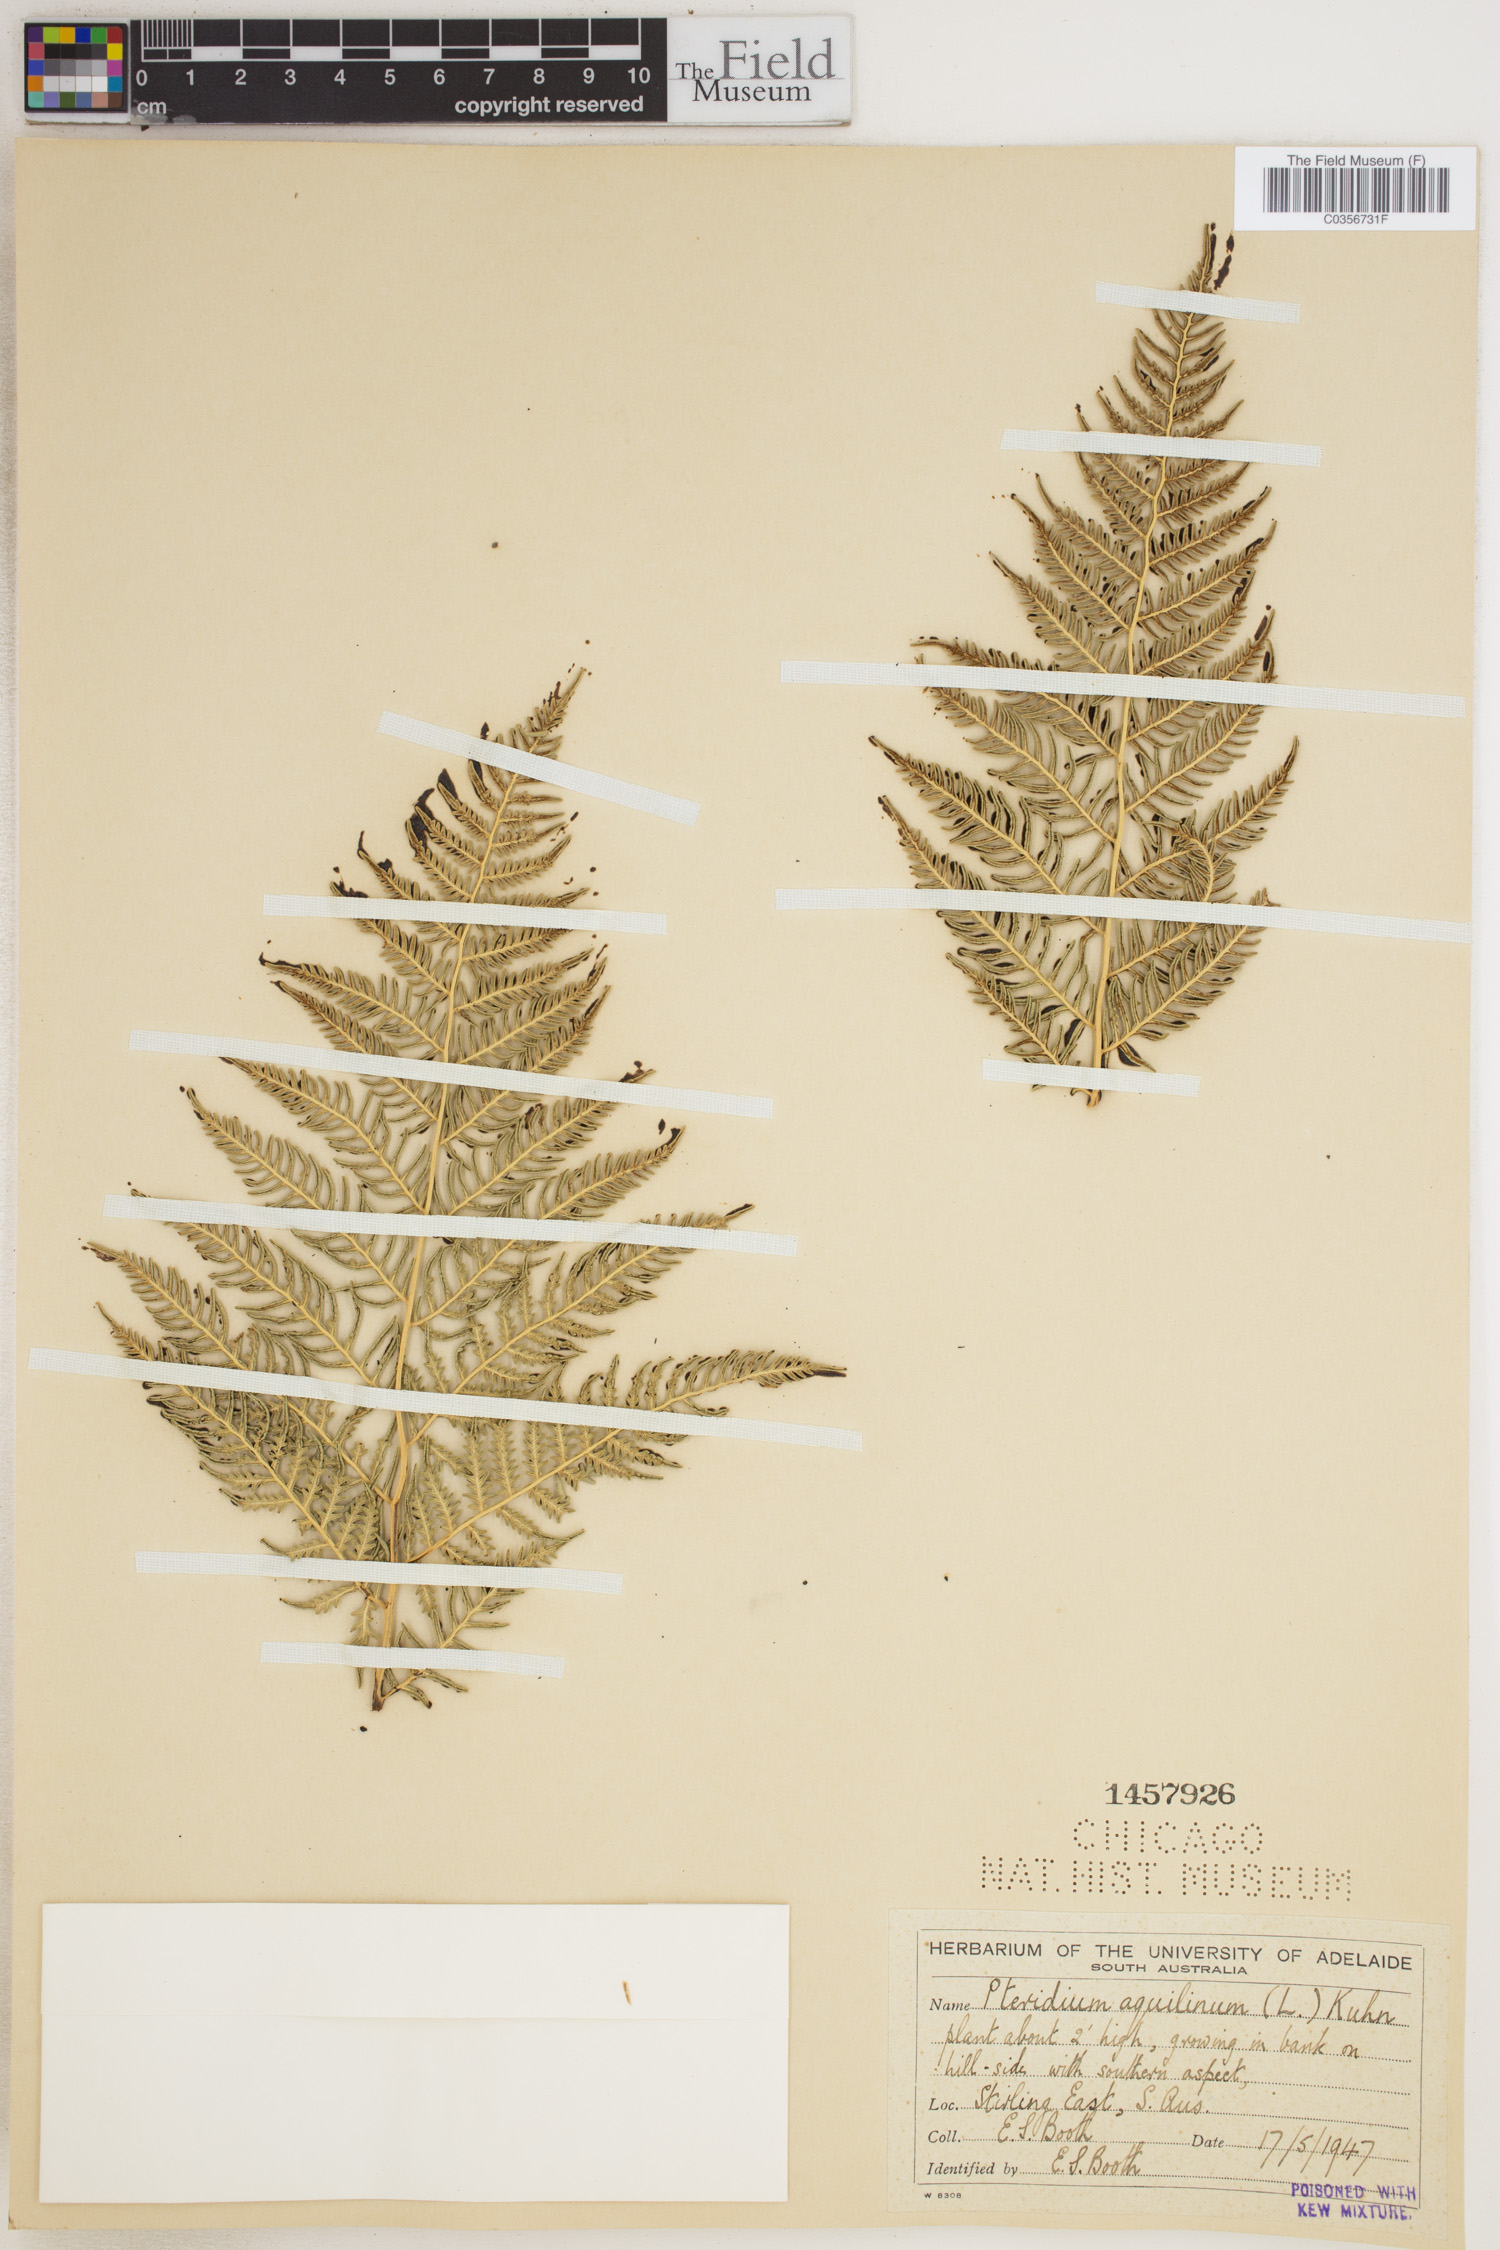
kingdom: Plantae
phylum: Tracheophyta
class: Polypodiopsida
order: Polypodiales
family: Dennstaedtiaceae
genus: Pteridium
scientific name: Pteridium aquilinum
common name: Bracken
